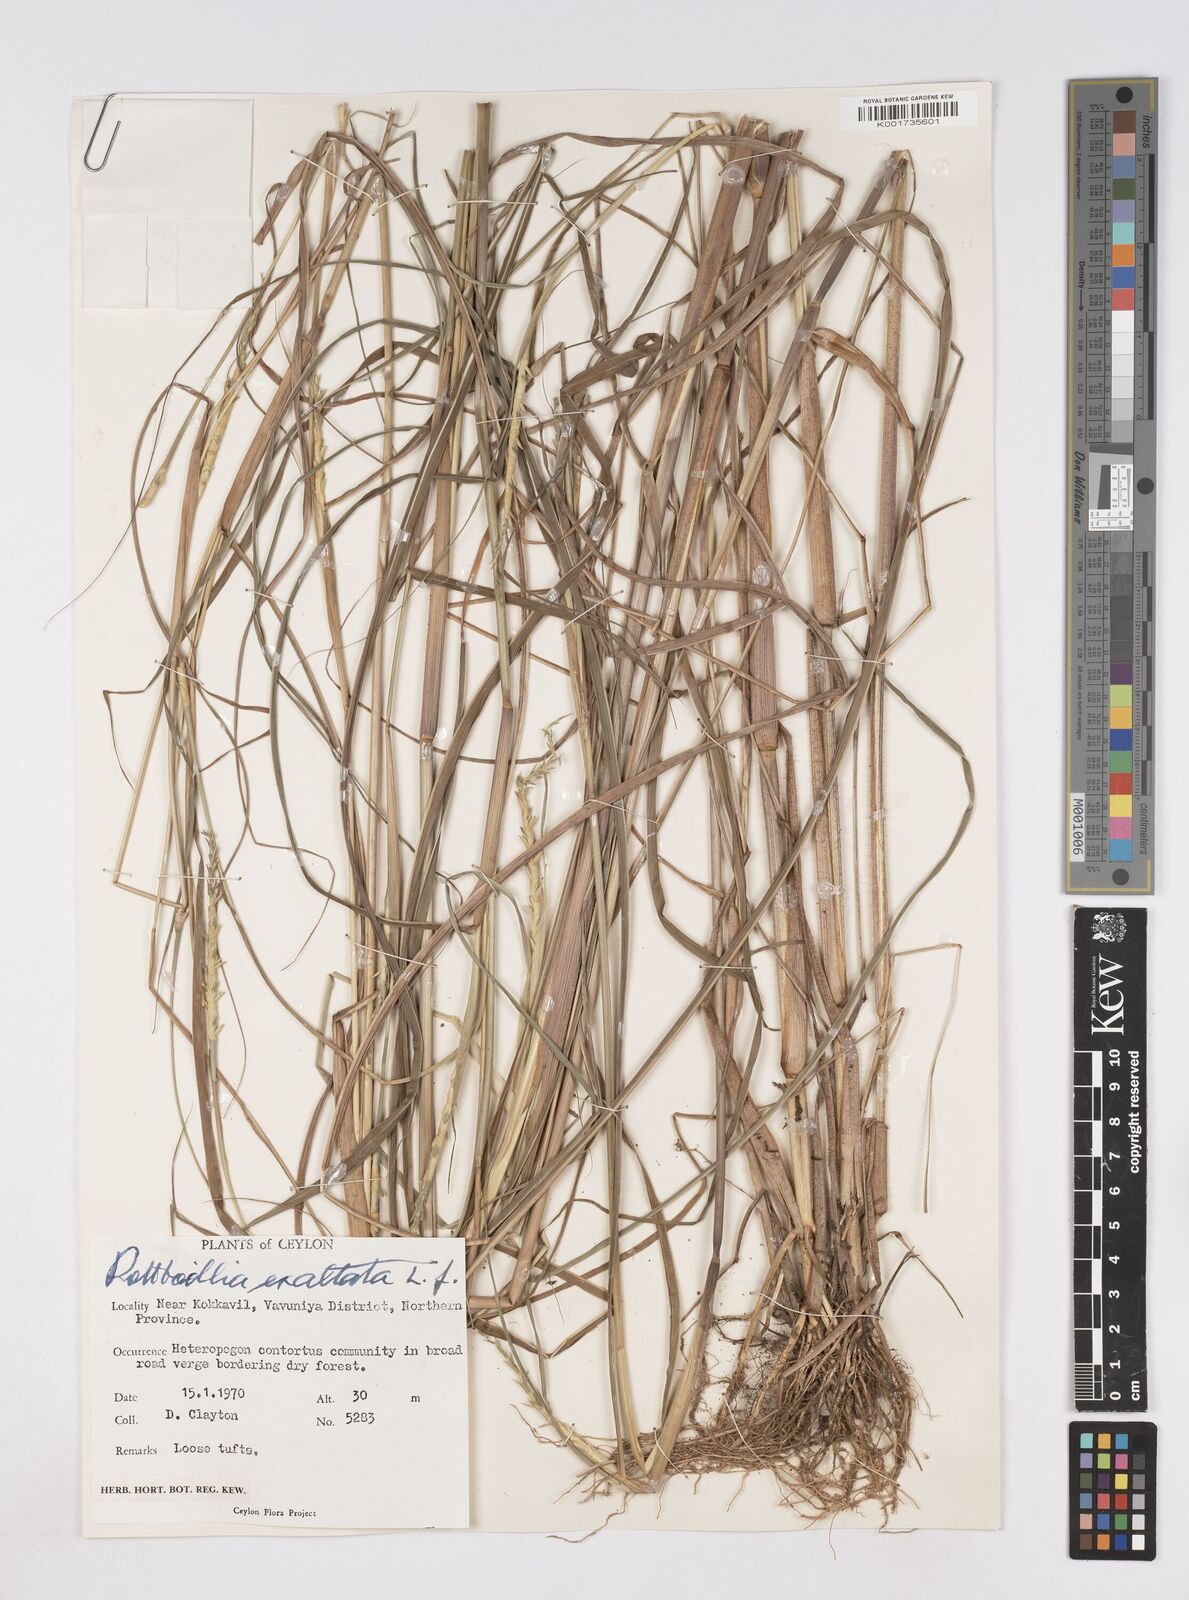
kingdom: Plantae
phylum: Tracheophyta
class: Liliopsida
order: Poales
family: Poaceae
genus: Ophiuros
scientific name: Ophiuros exaltatus
